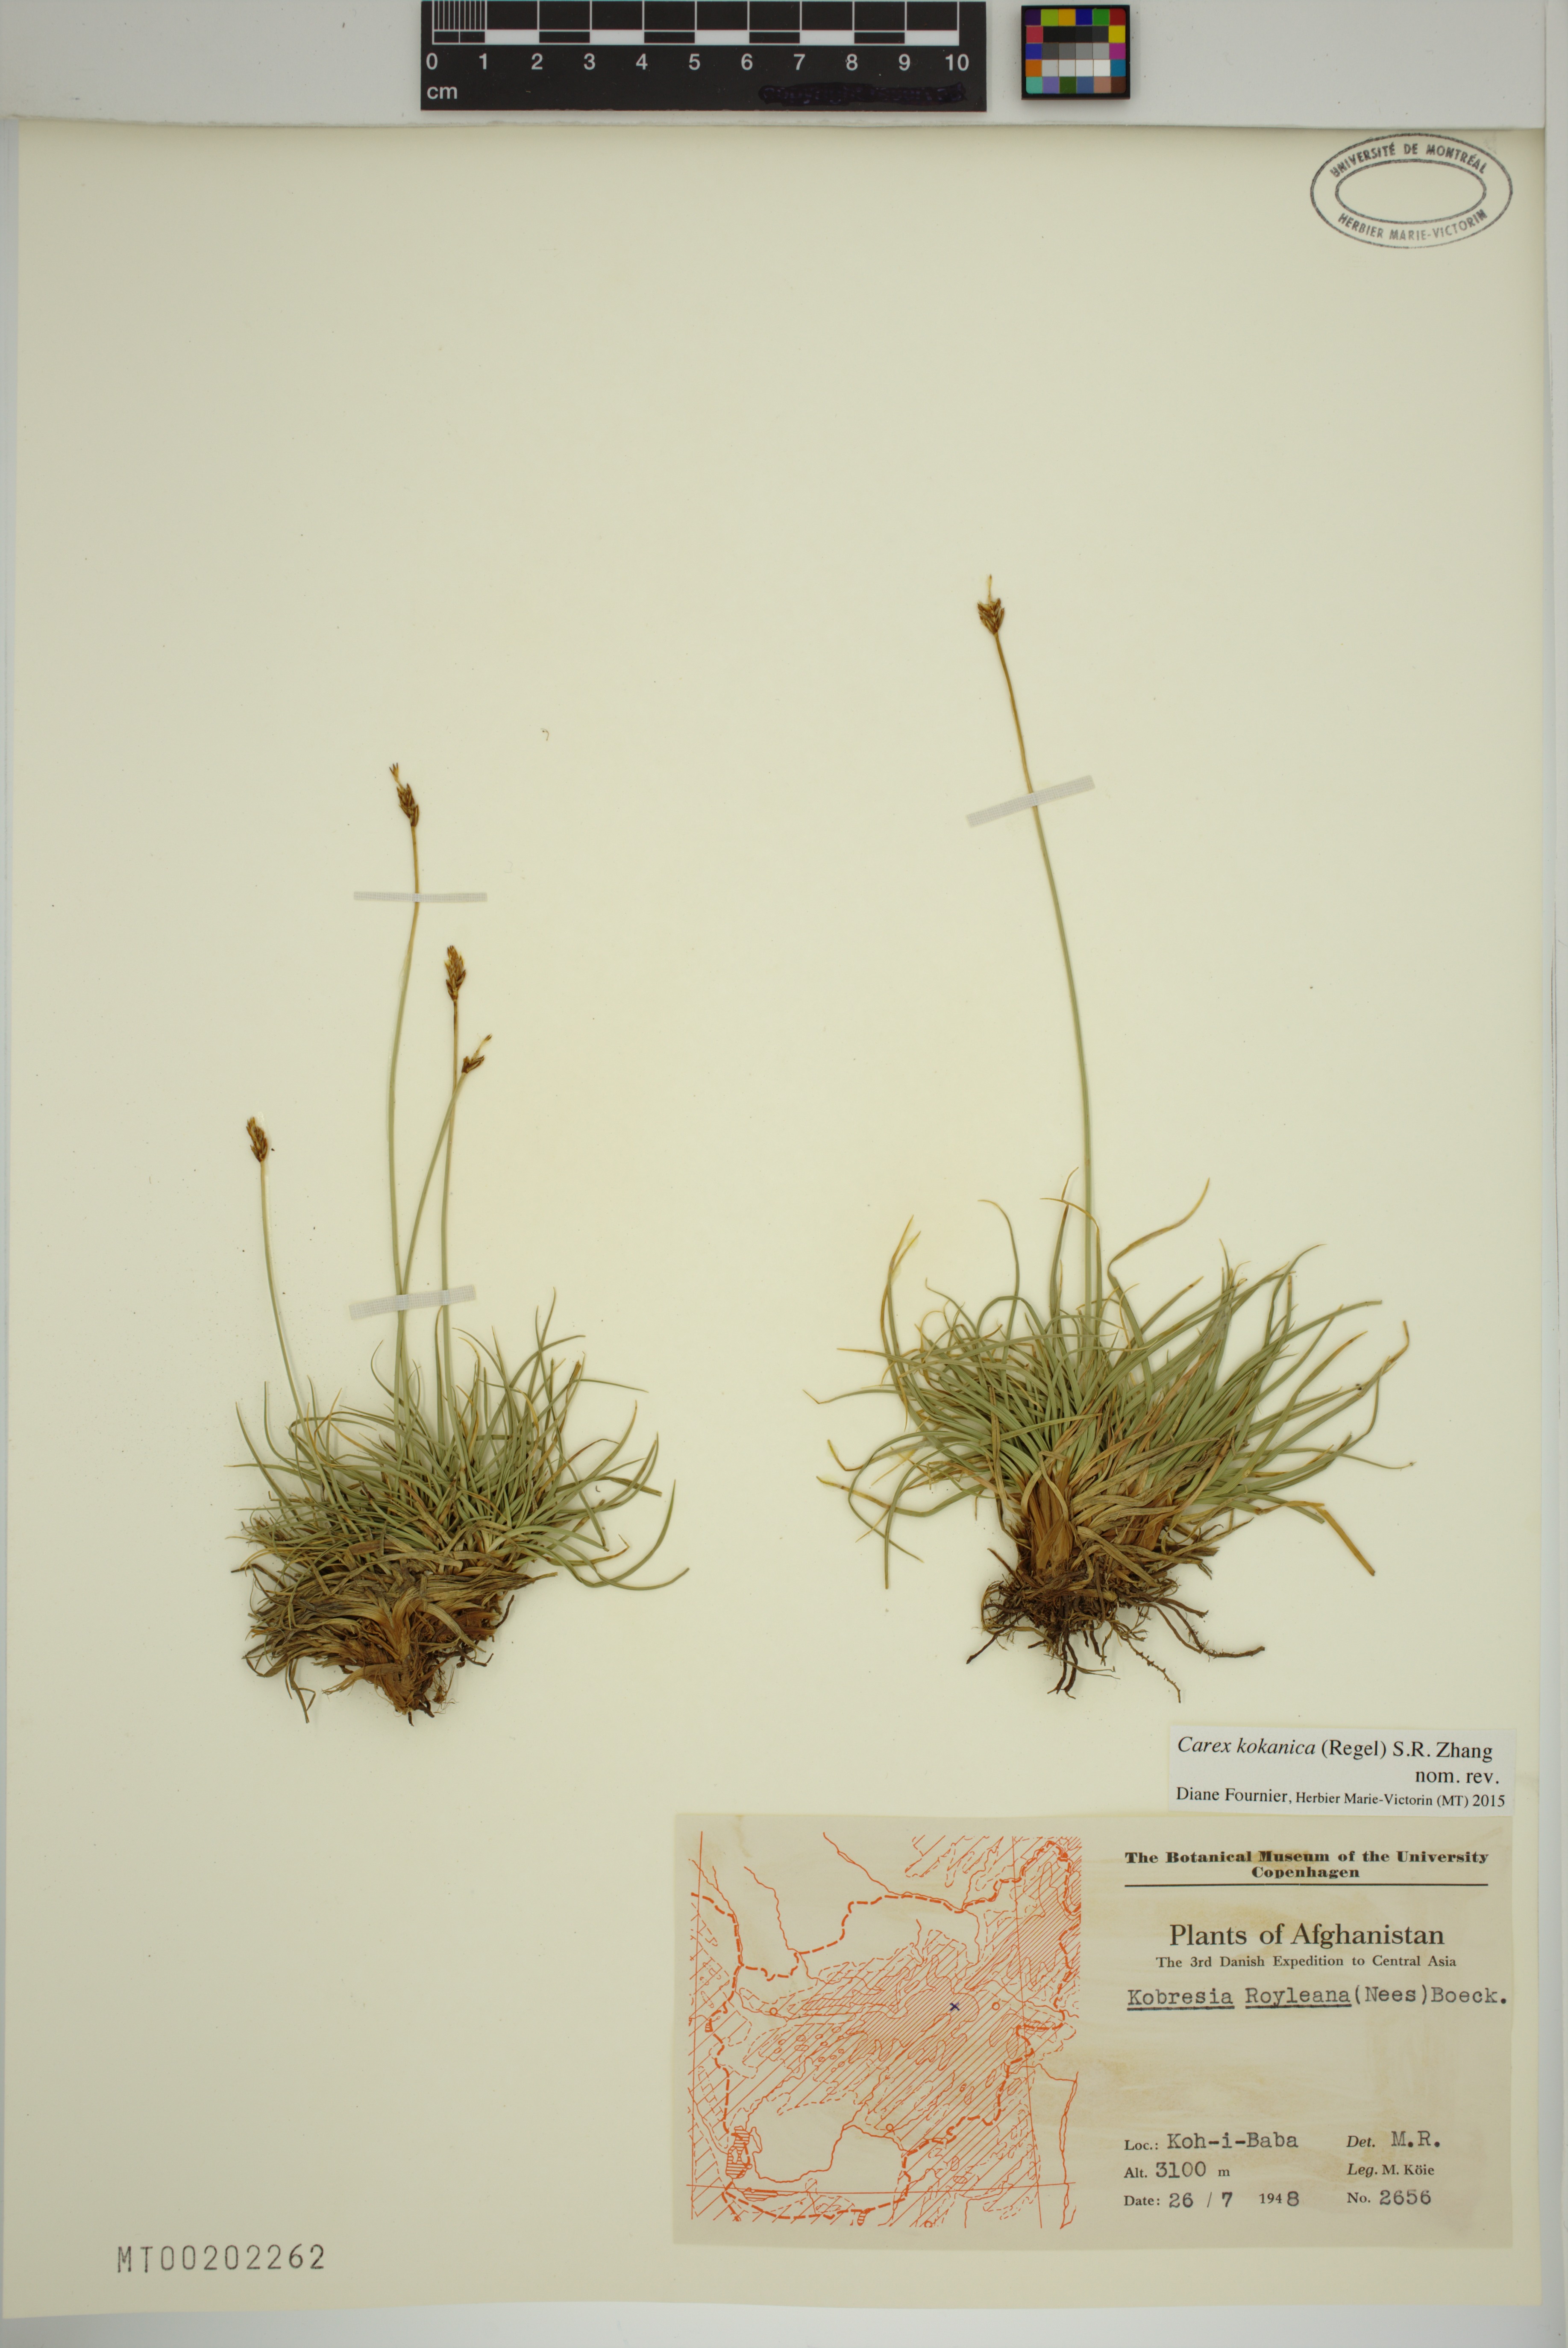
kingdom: Plantae
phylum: Tracheophyta
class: Liliopsida
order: Poales
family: Cyperaceae
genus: Carex
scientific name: Carex kokanica
